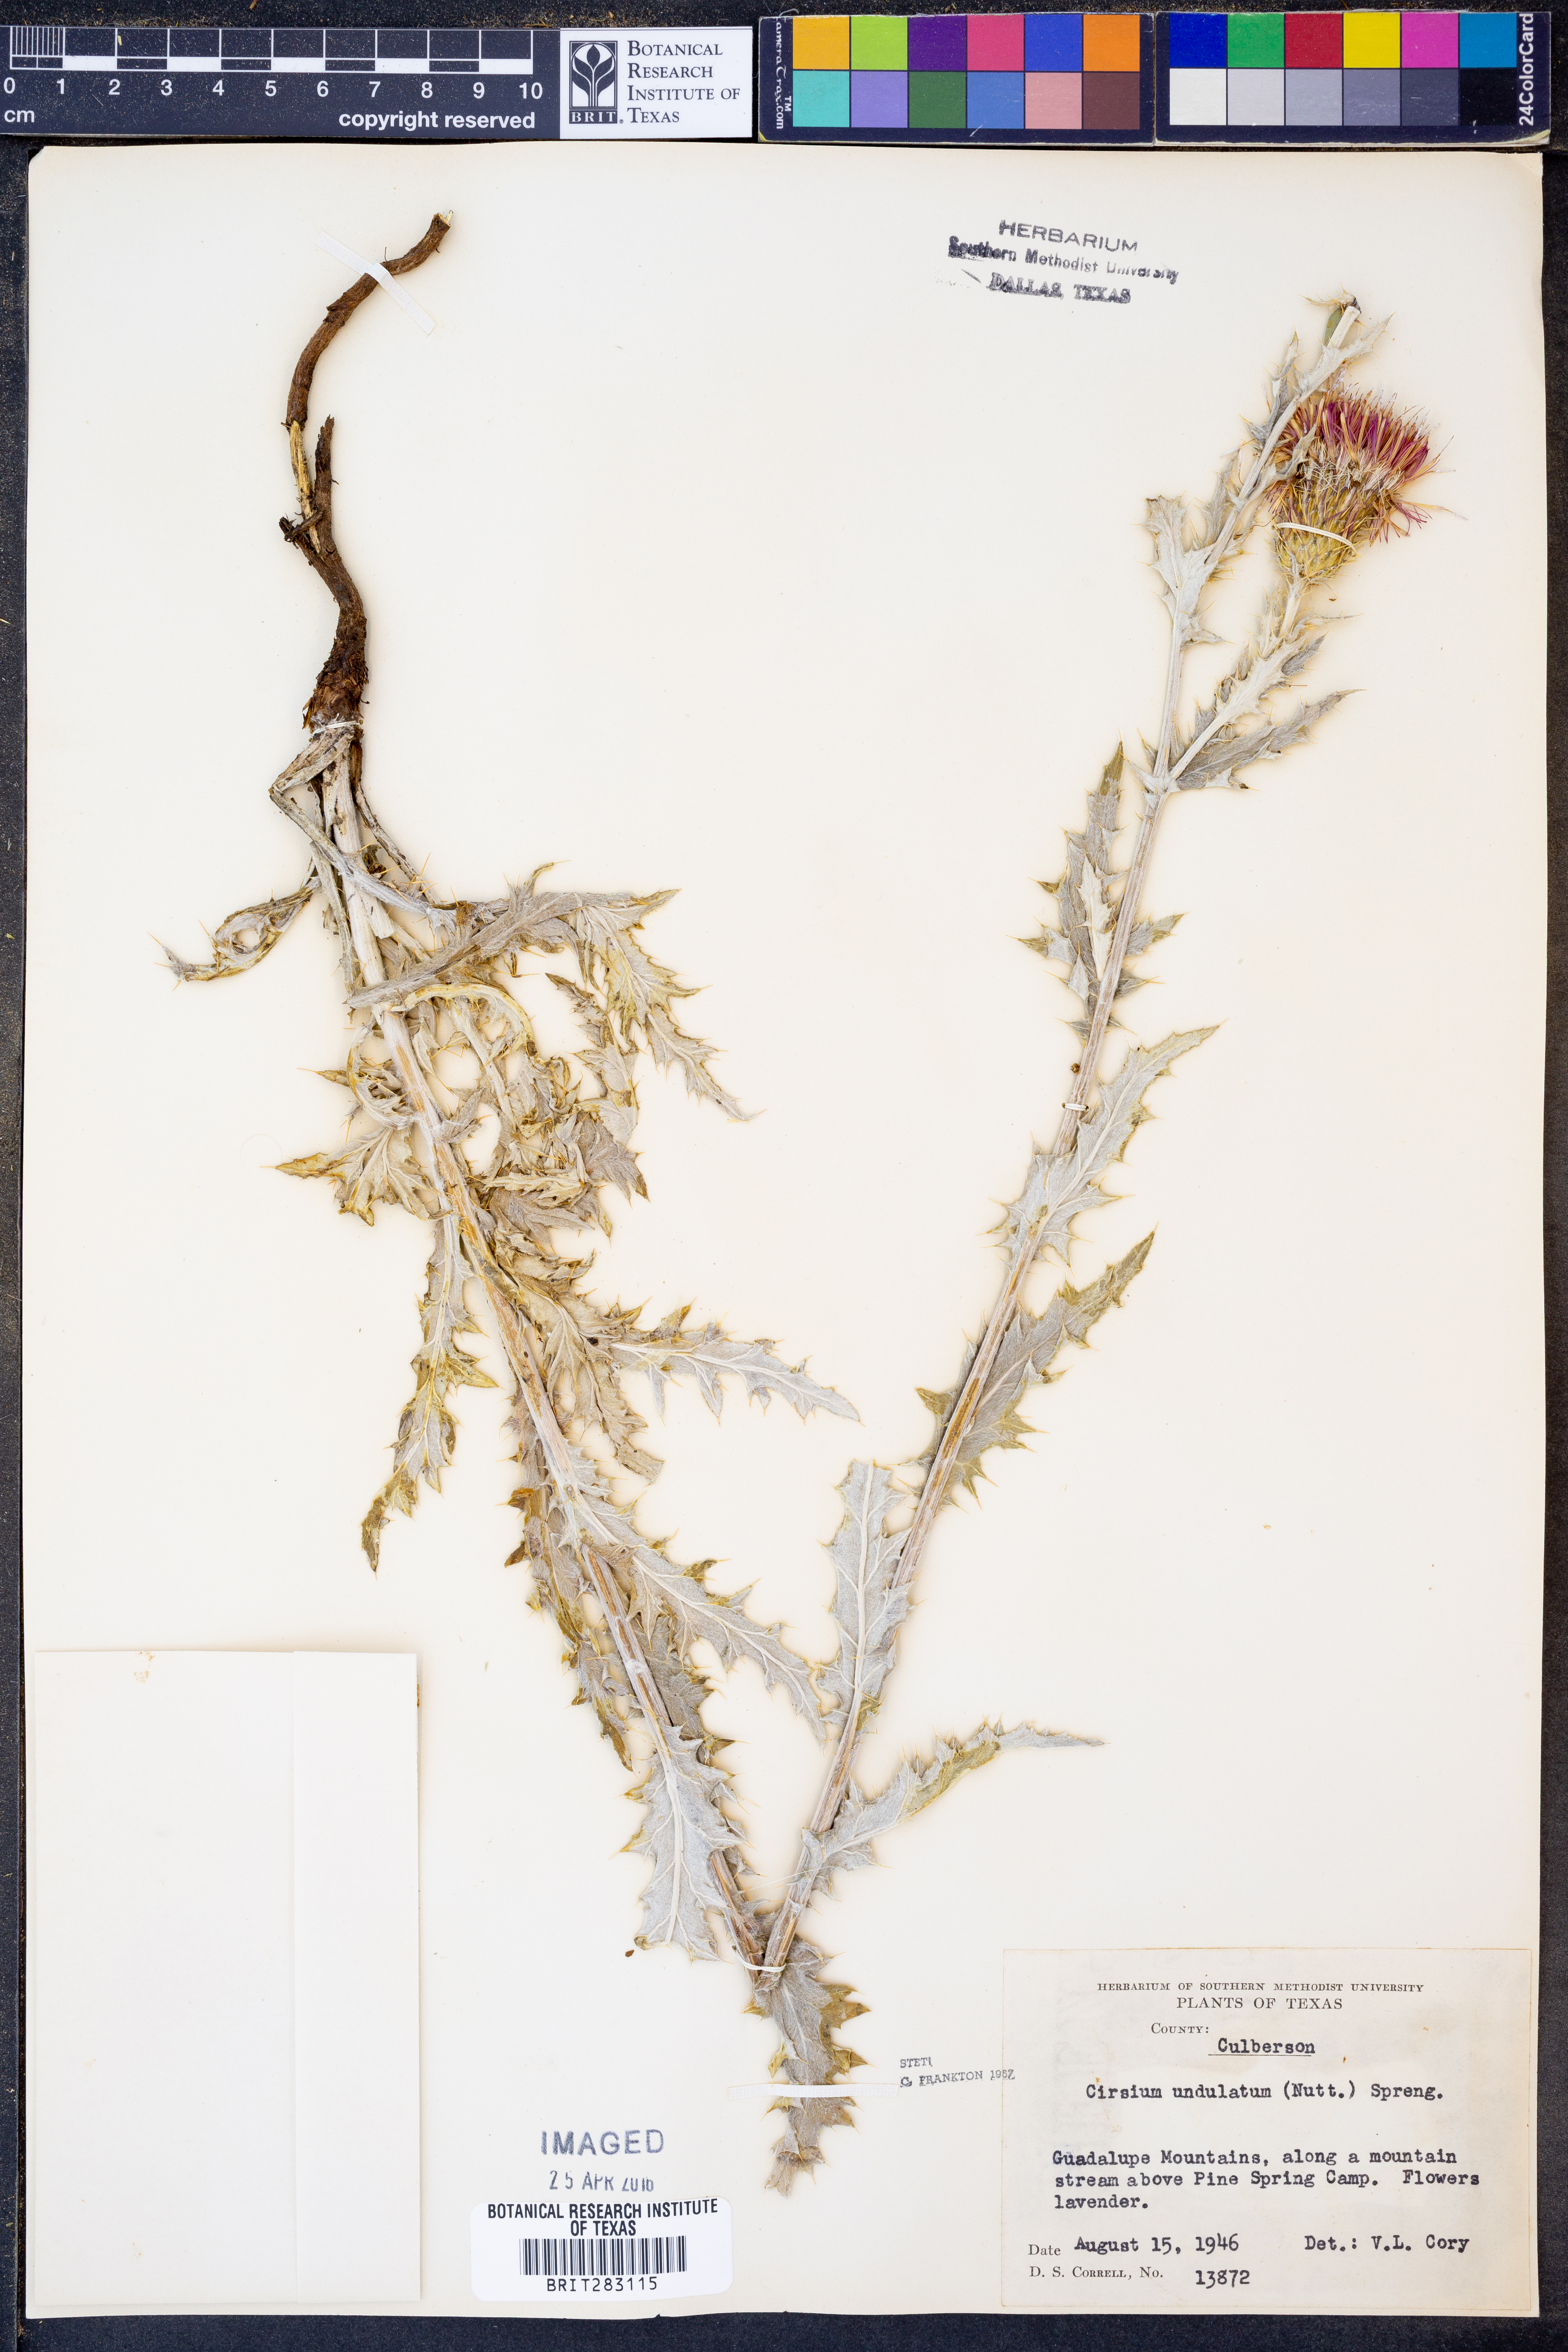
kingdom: Plantae
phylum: Tracheophyta
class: Magnoliopsida
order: Asterales
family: Asteraceae
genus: Cirsium
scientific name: Cirsium undulatum
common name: Pasture thistle
